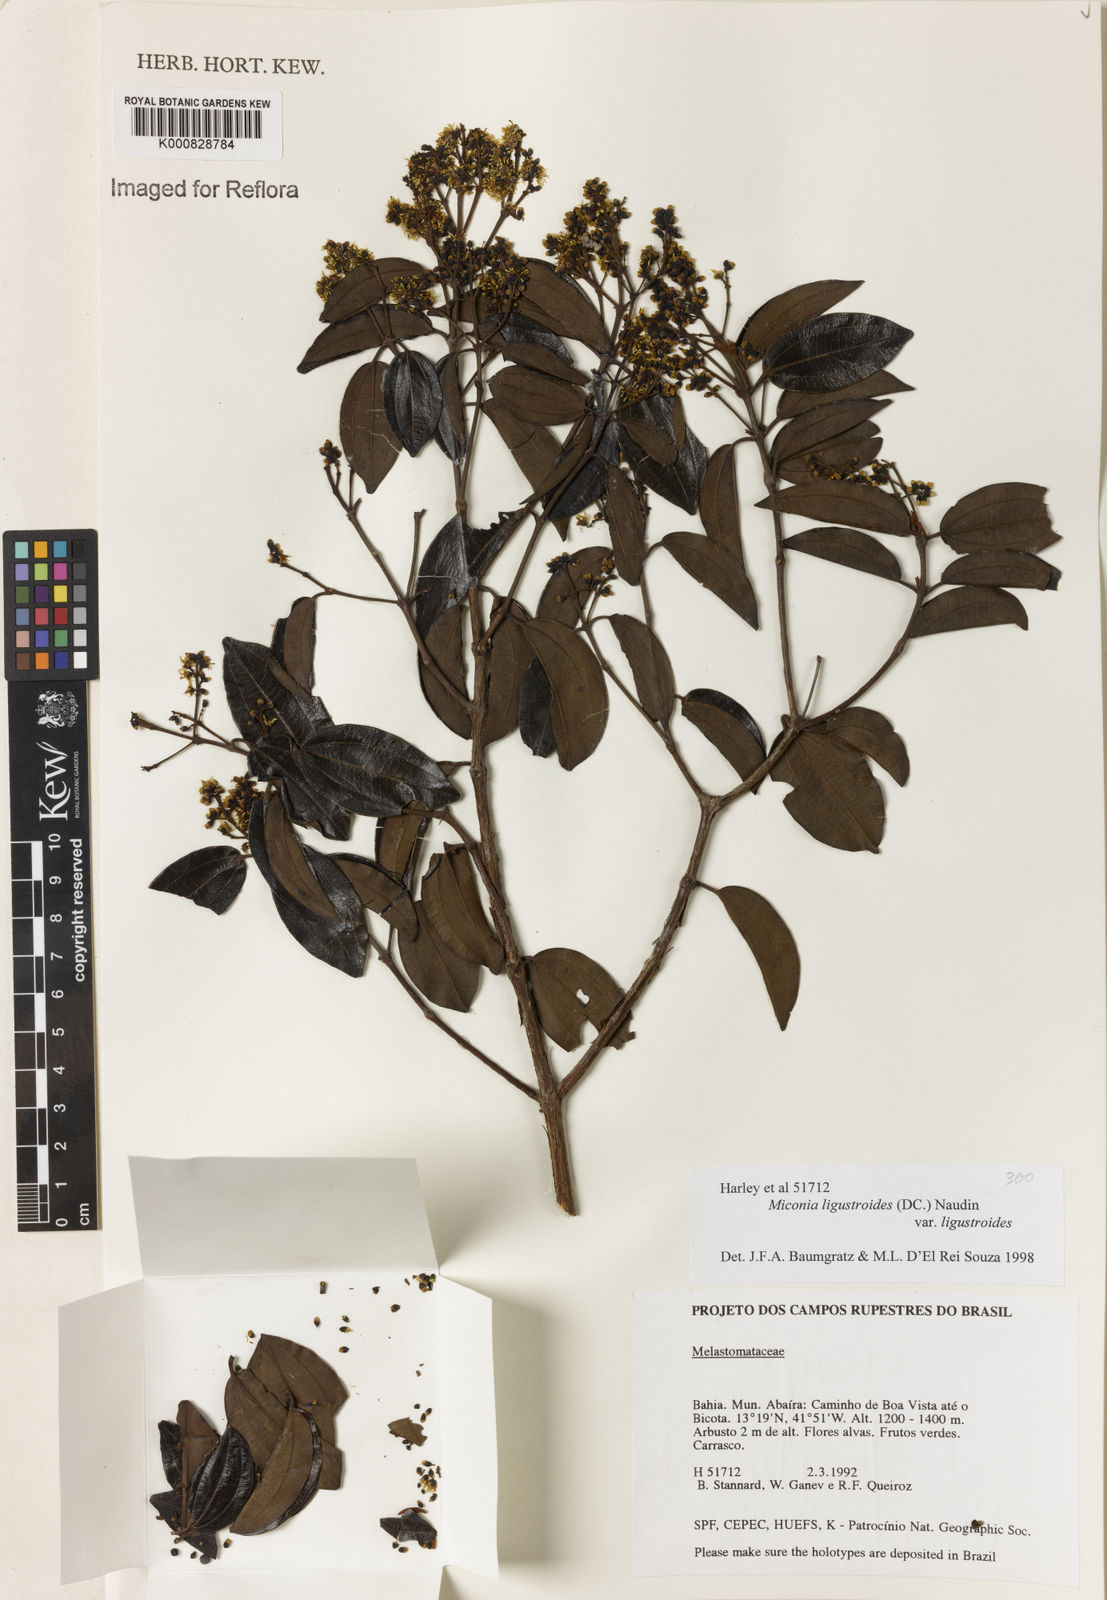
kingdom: Plantae
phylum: Tracheophyta
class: Magnoliopsida
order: Myrtales
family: Melastomataceae
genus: Miconia
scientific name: Miconia ligustroides
